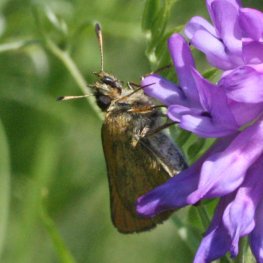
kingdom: Animalia
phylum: Arthropoda
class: Insecta
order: Lepidoptera
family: Hesperiidae
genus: Thymelicus
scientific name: Thymelicus lineola
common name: European Skipper
